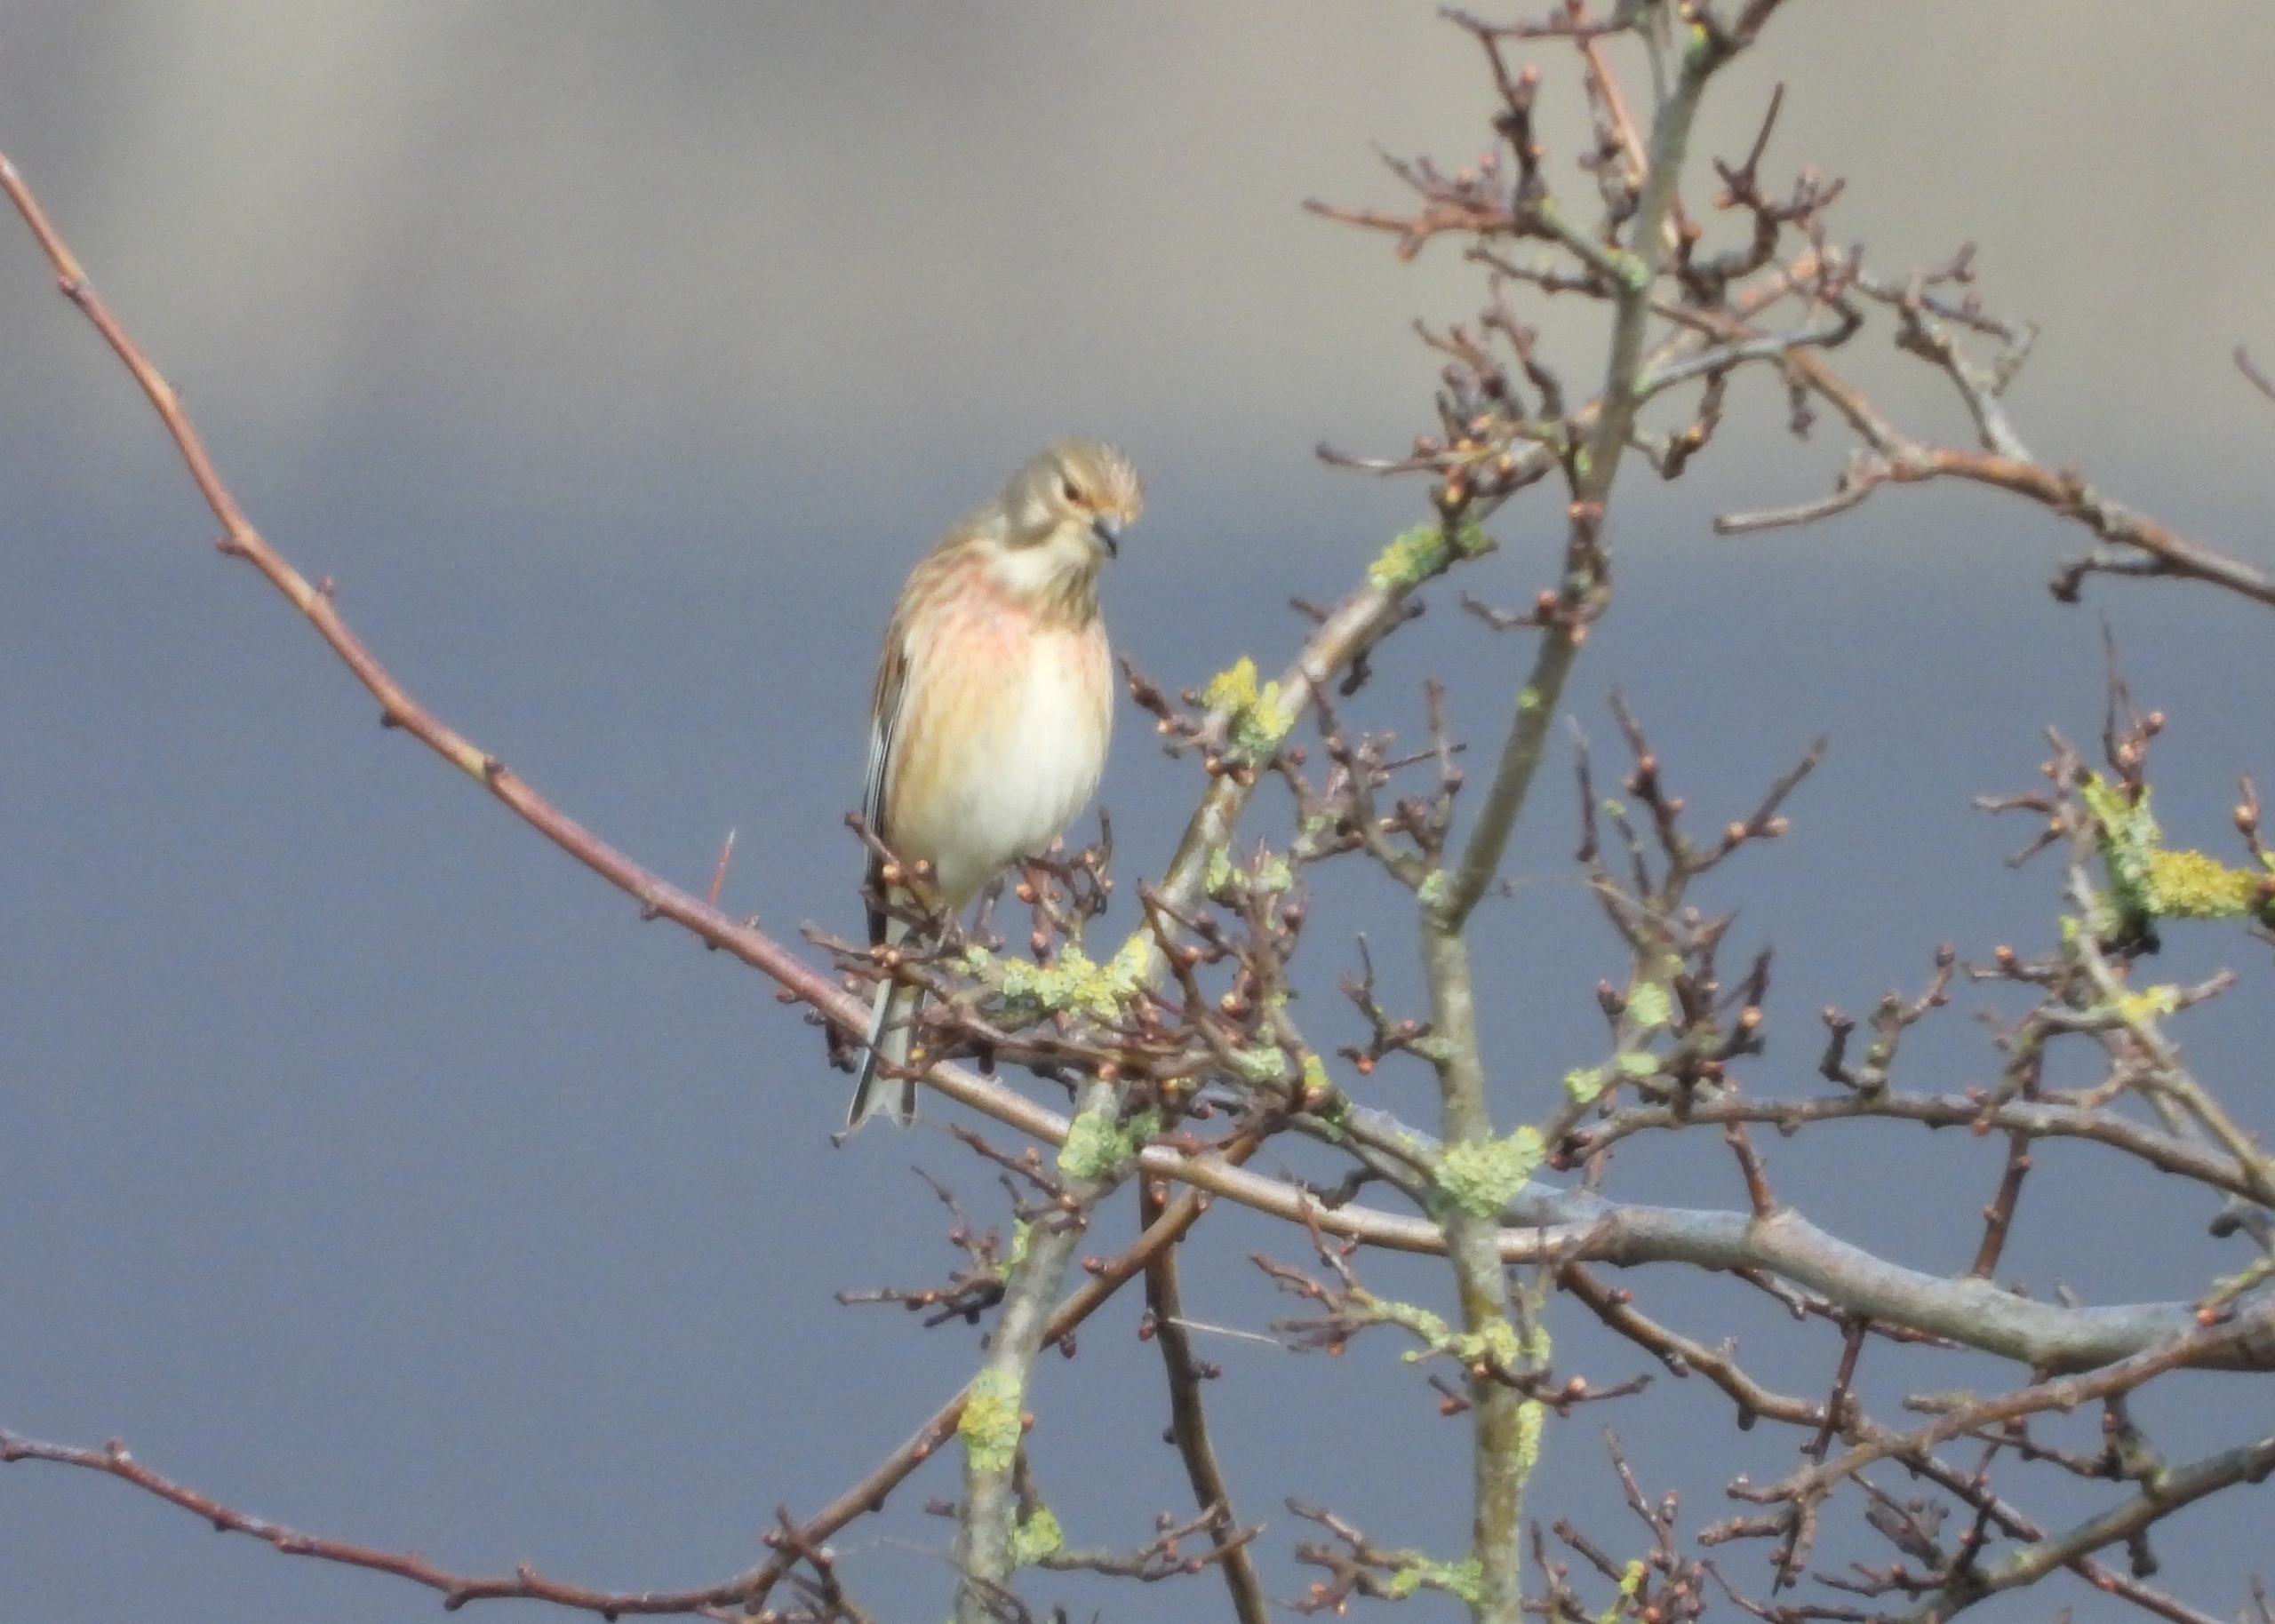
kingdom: Animalia
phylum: Chordata
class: Aves
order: Passeriformes
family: Fringillidae
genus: Linaria
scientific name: Linaria cannabina
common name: Tornirisk
